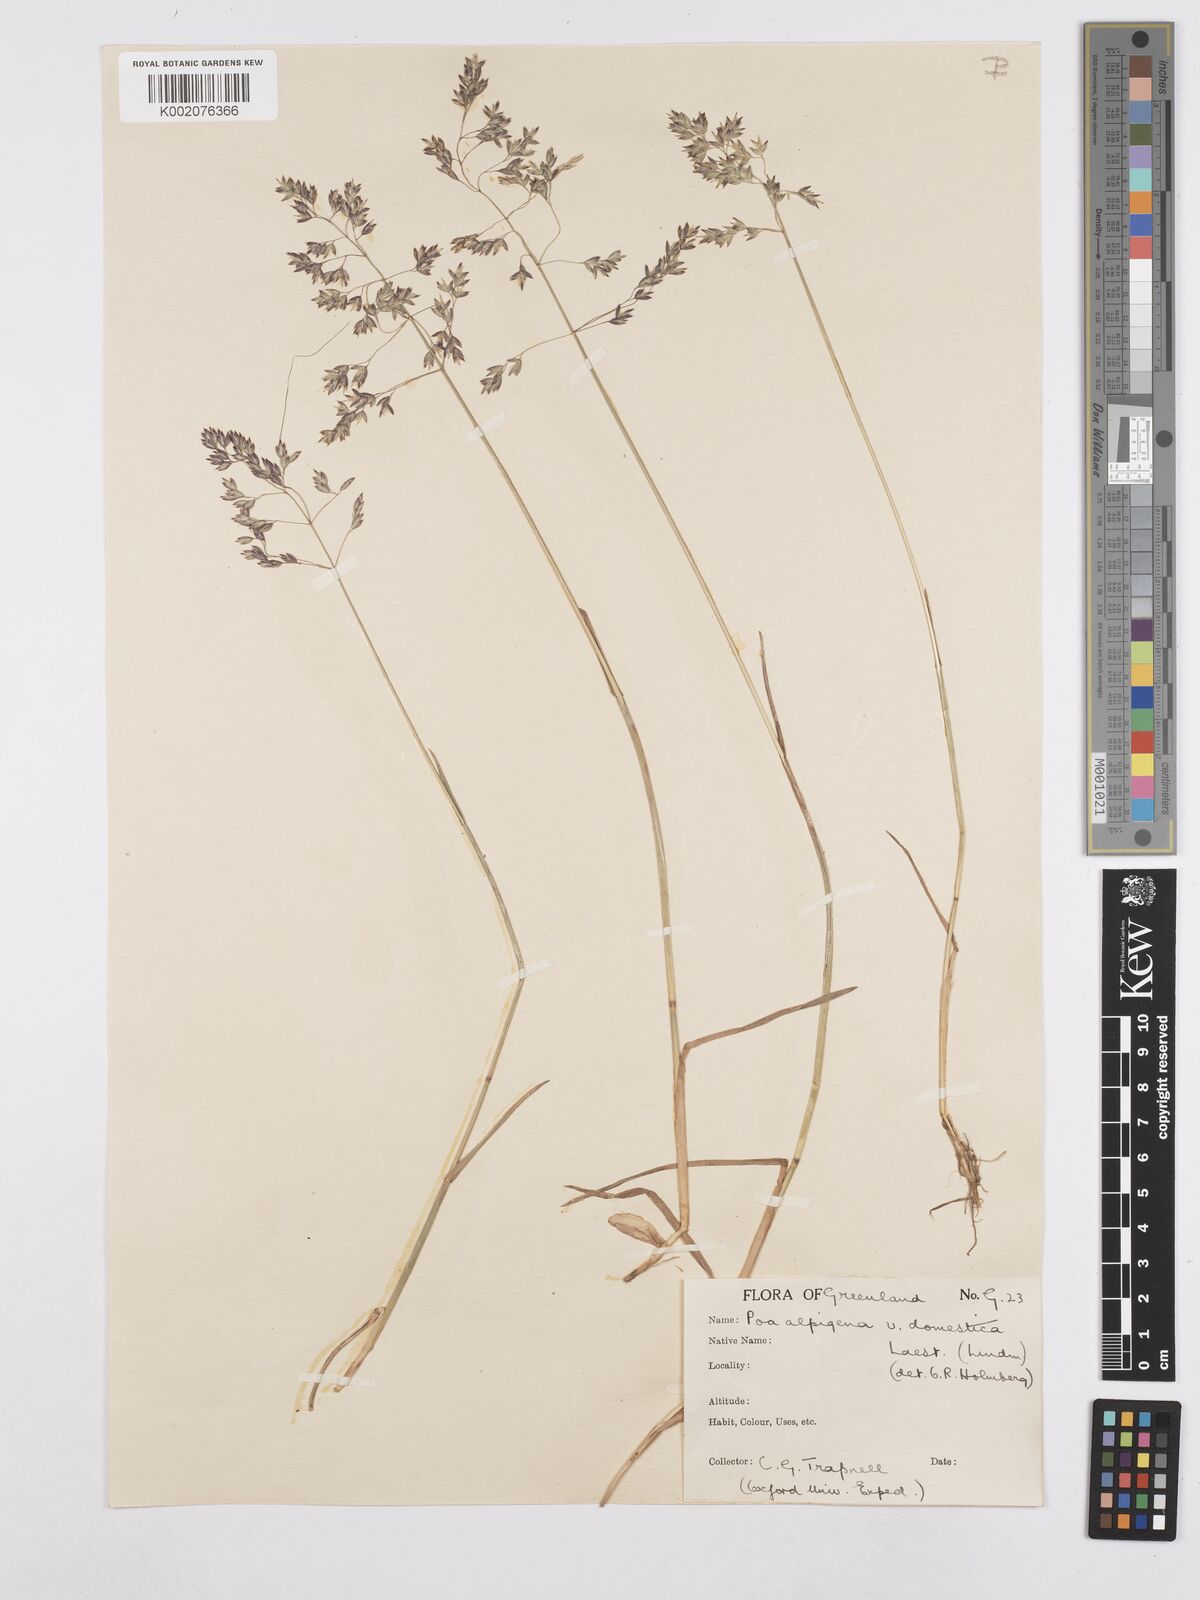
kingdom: Plantae
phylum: Tracheophyta
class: Liliopsida
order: Poales
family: Poaceae
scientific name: Poaceae
